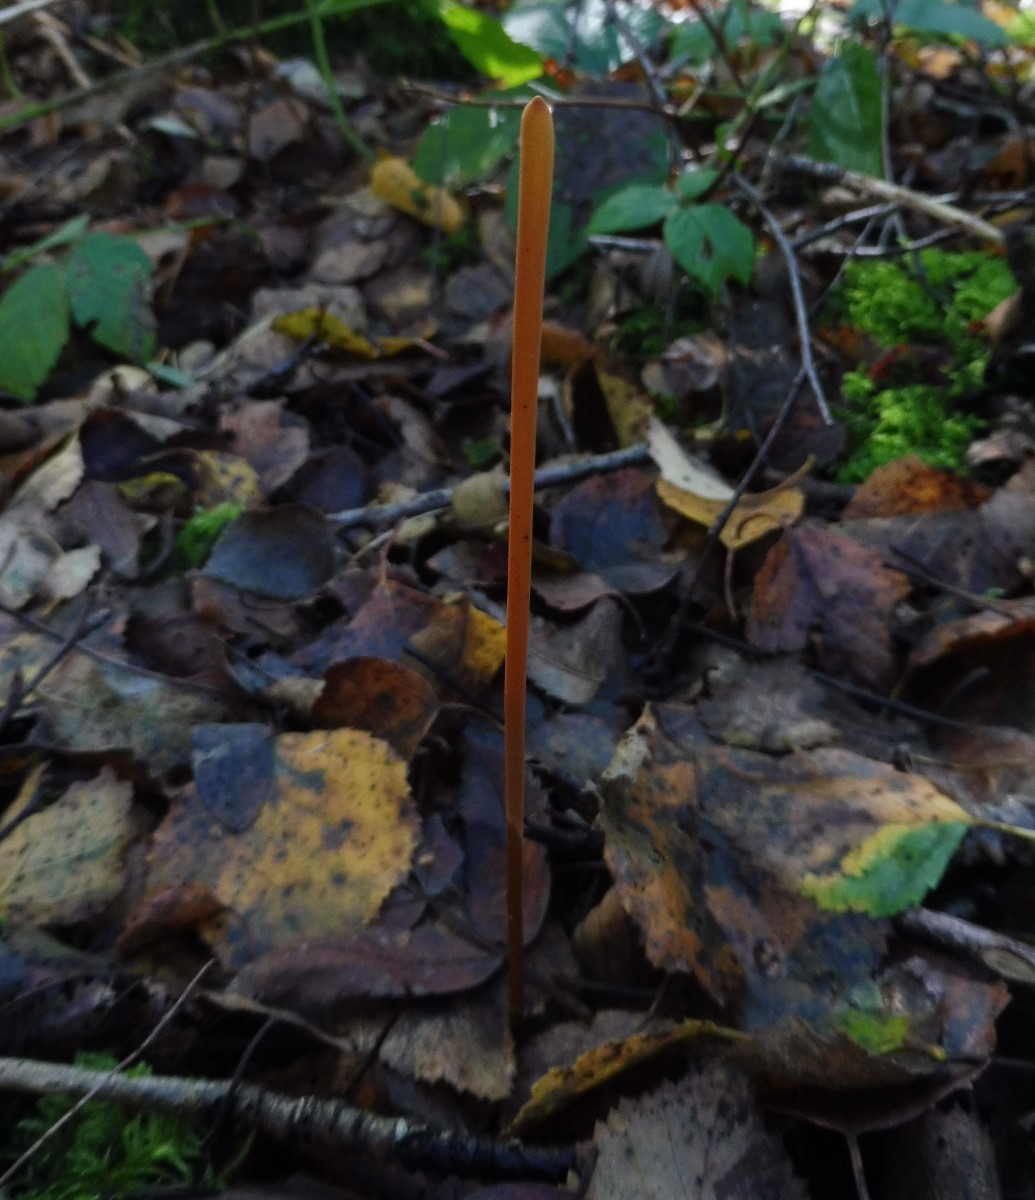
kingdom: Fungi
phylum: Basidiomycota
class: Agaricomycetes
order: Agaricales
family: Typhulaceae
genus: Typhula
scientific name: Typhula fistulosa
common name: pibet rørkølle
